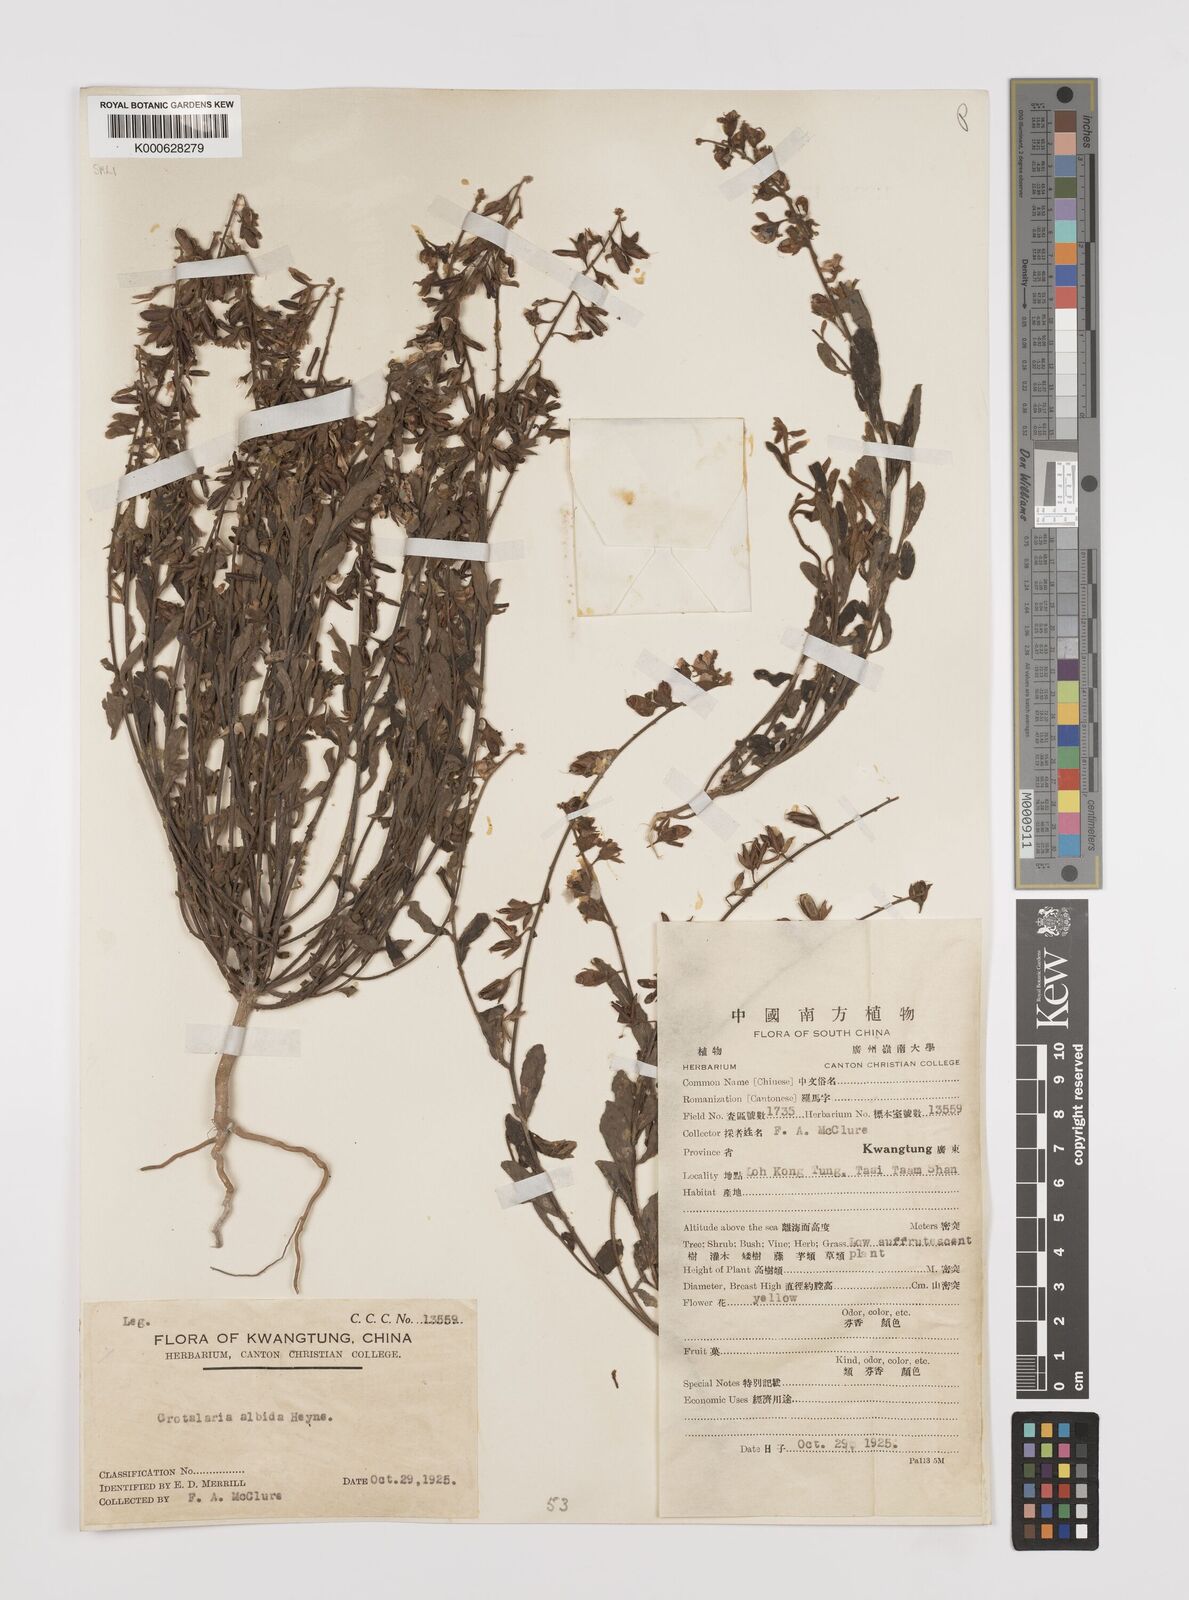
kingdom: Plantae
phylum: Tracheophyta
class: Magnoliopsida
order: Fabales
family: Fabaceae
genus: Crotalaria
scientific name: Crotalaria albida
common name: Taiwan crotalaria
